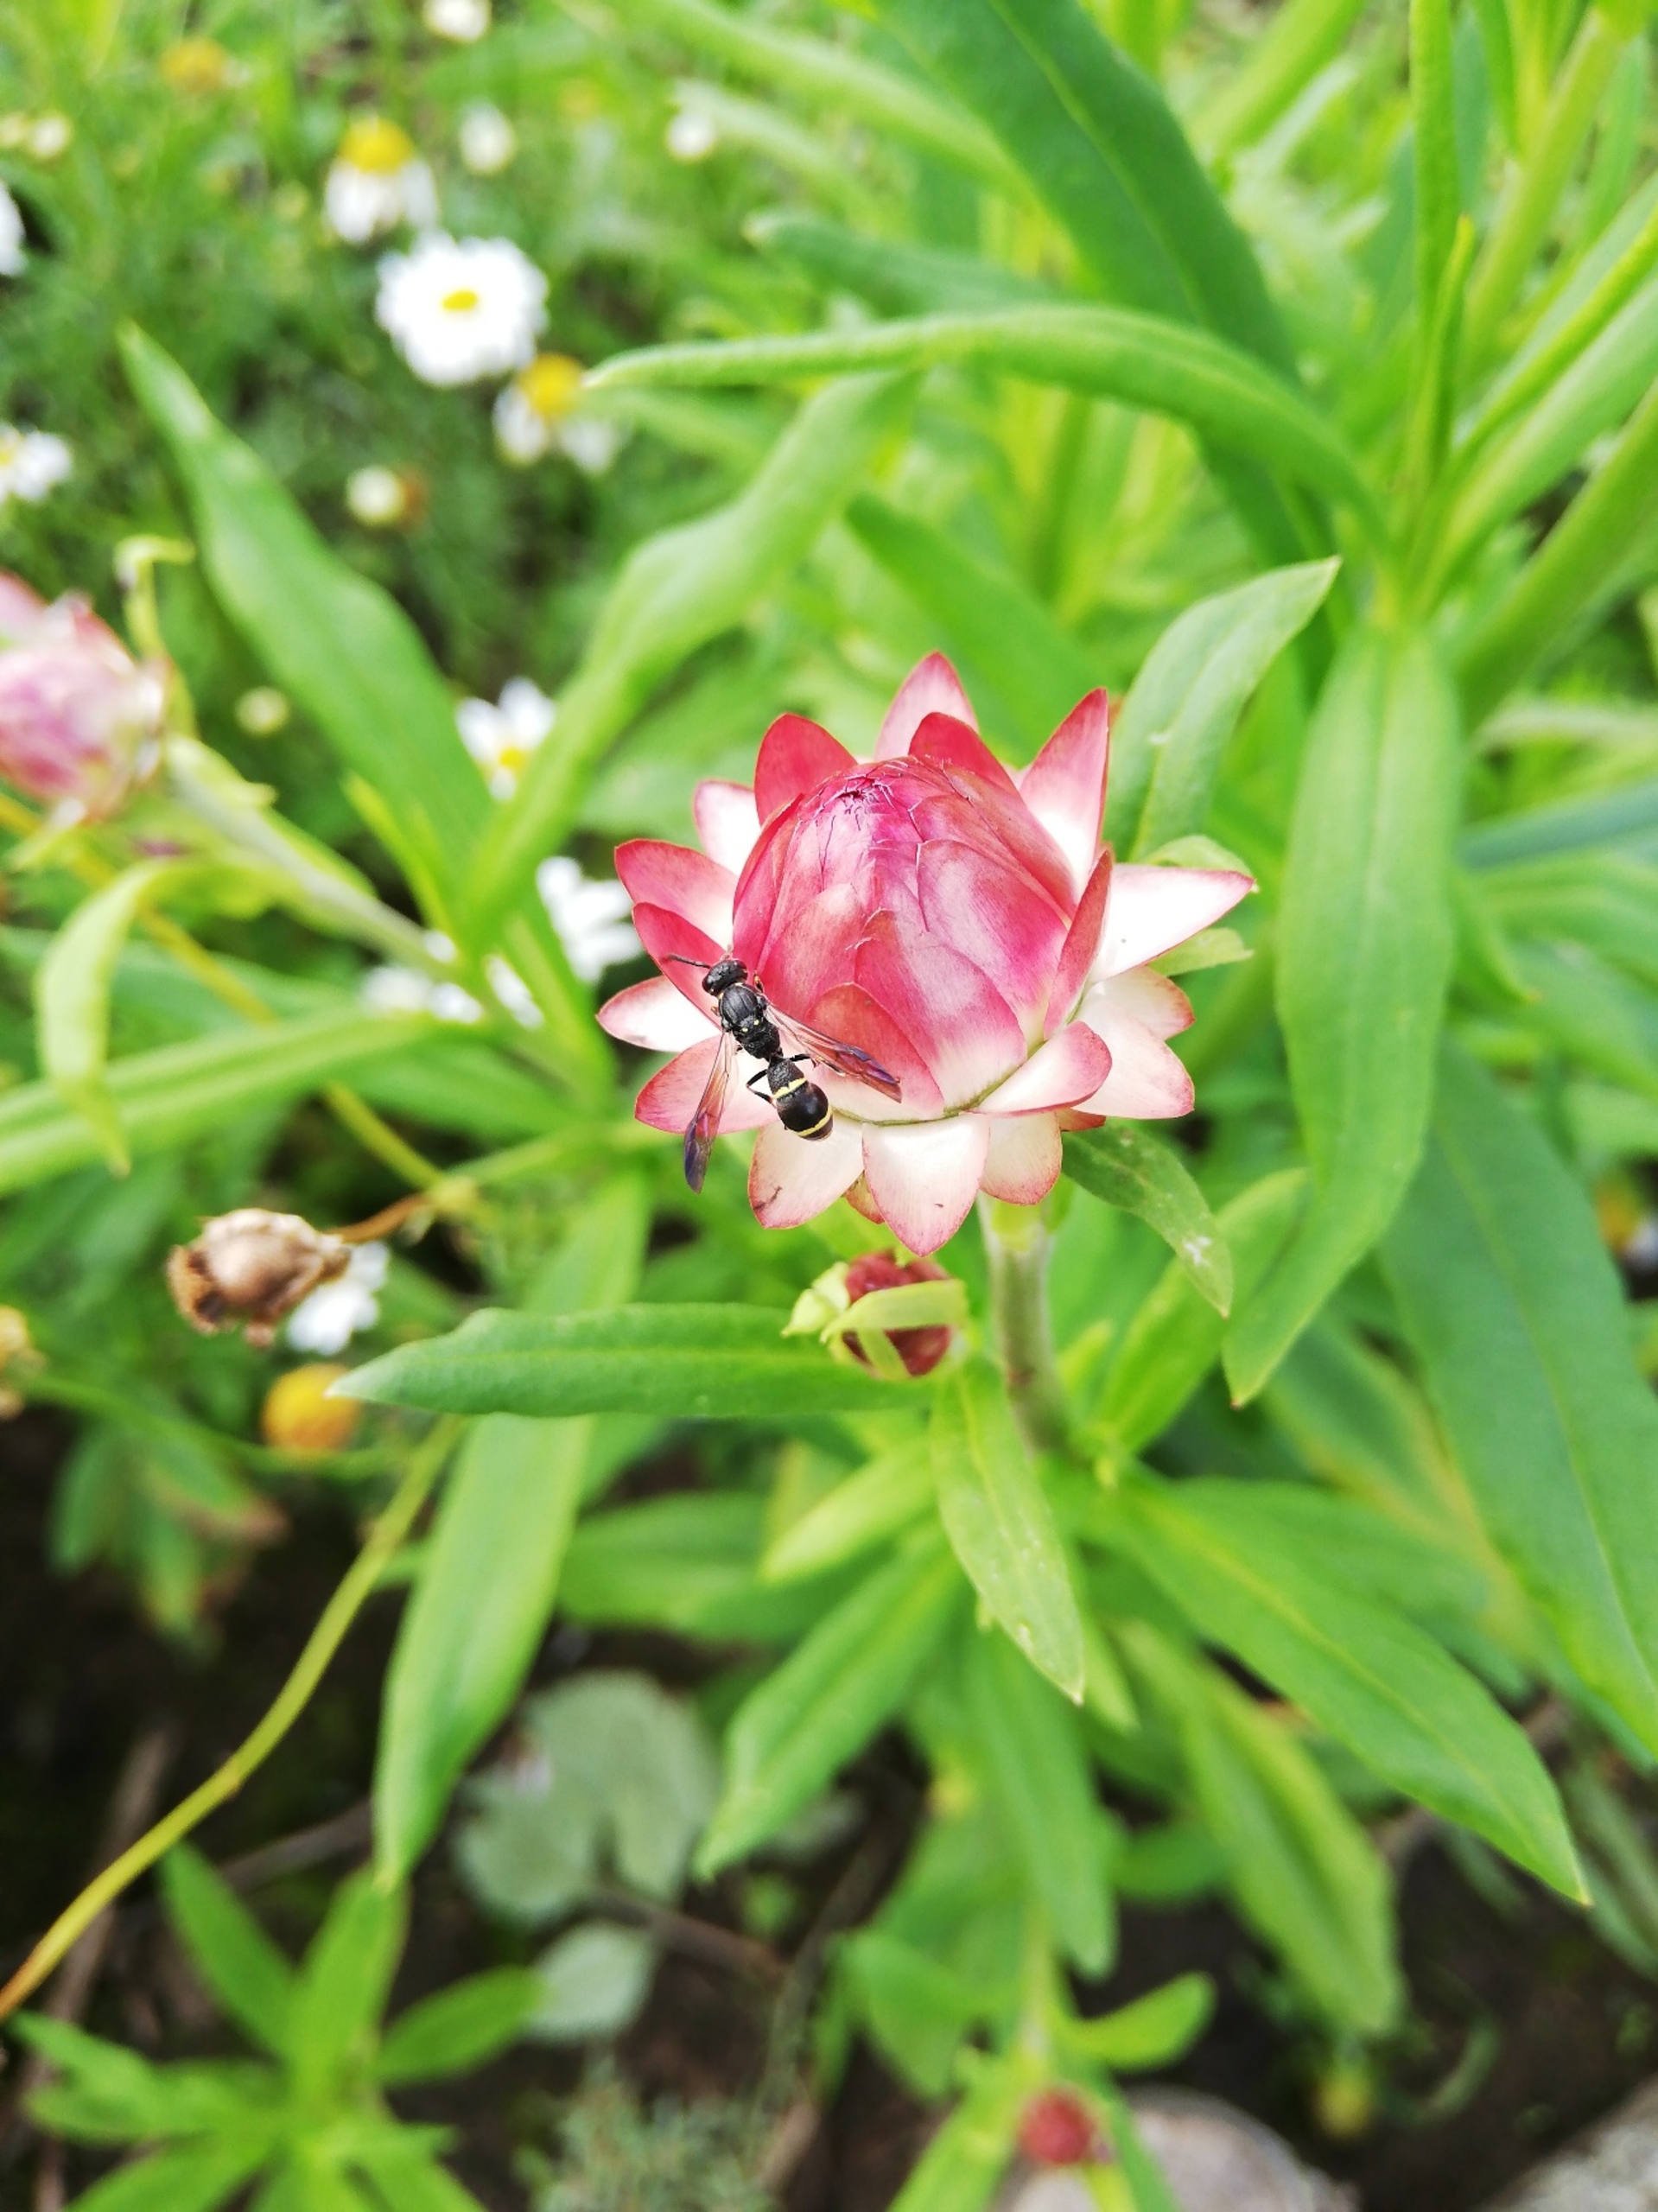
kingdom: Animalia
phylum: Arthropoda
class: Insecta
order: Hymenoptera
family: Eumenidae
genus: Symmorphus
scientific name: Symmorphus
